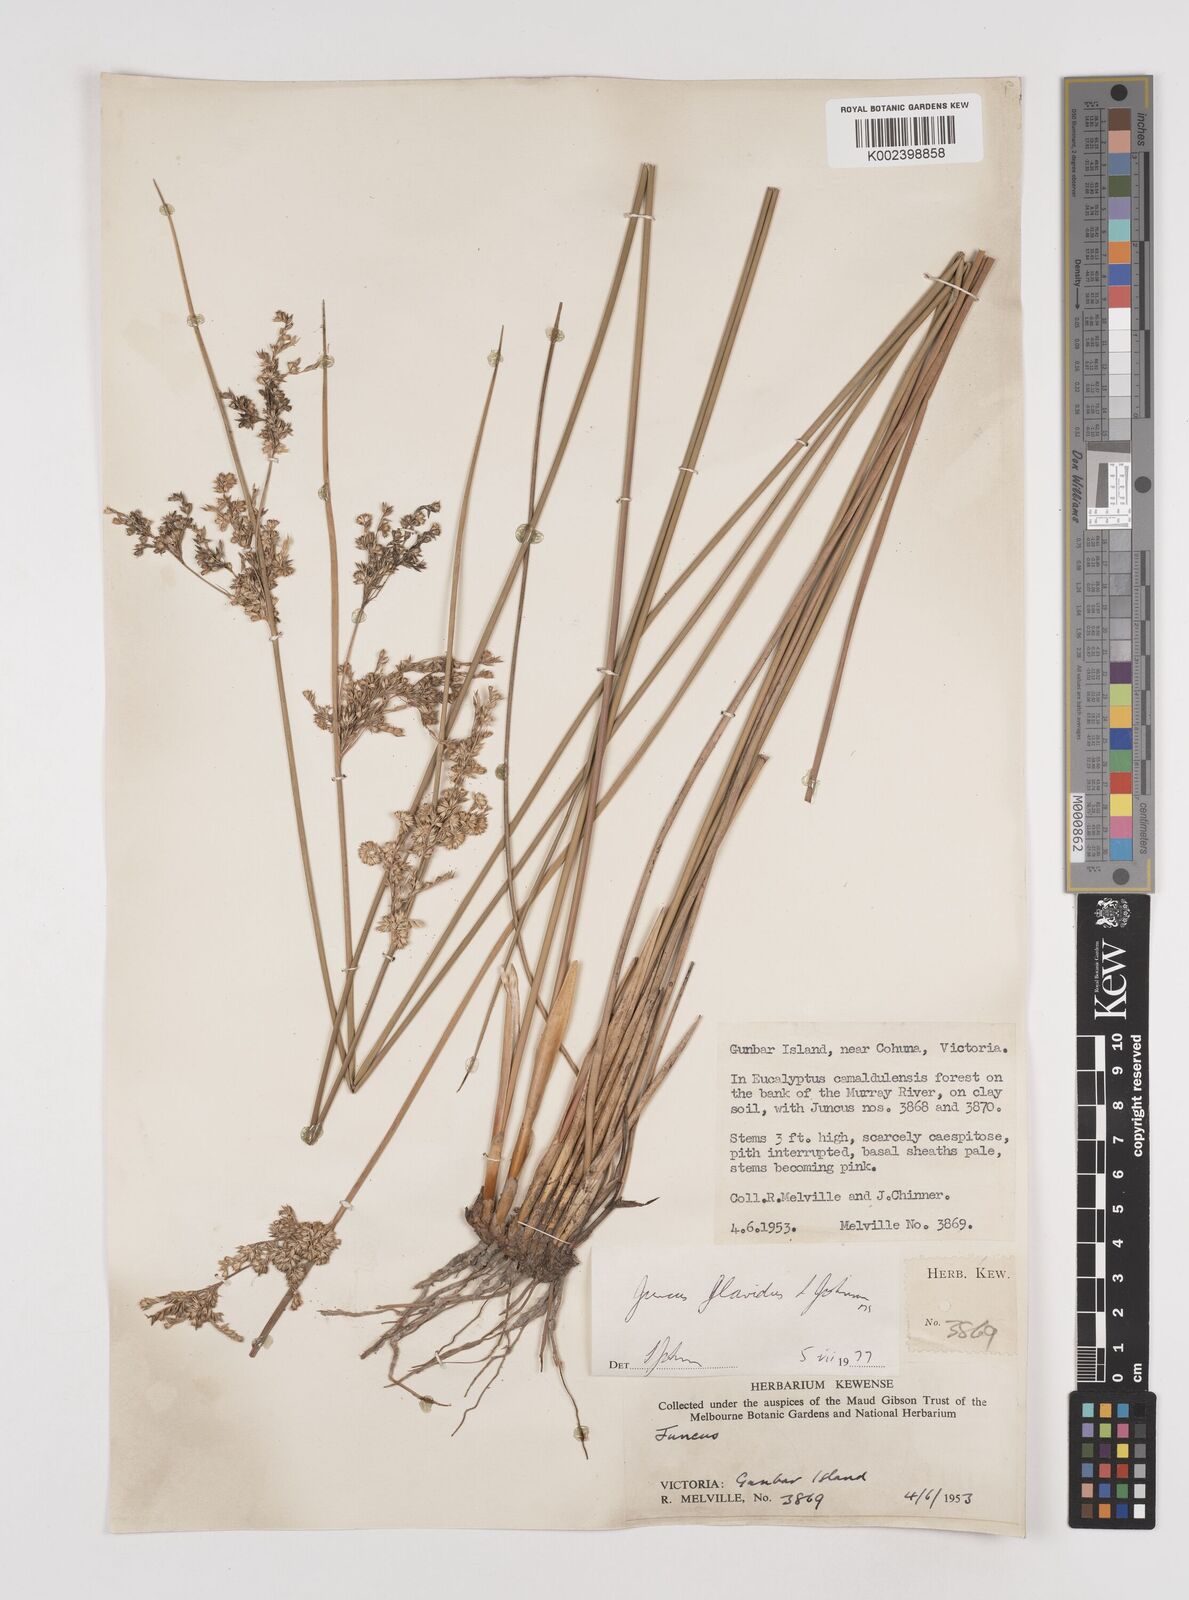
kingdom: Plantae
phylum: Tracheophyta
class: Liliopsida
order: Poales
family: Juncaceae
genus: Juncus
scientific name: Juncus flavidus
